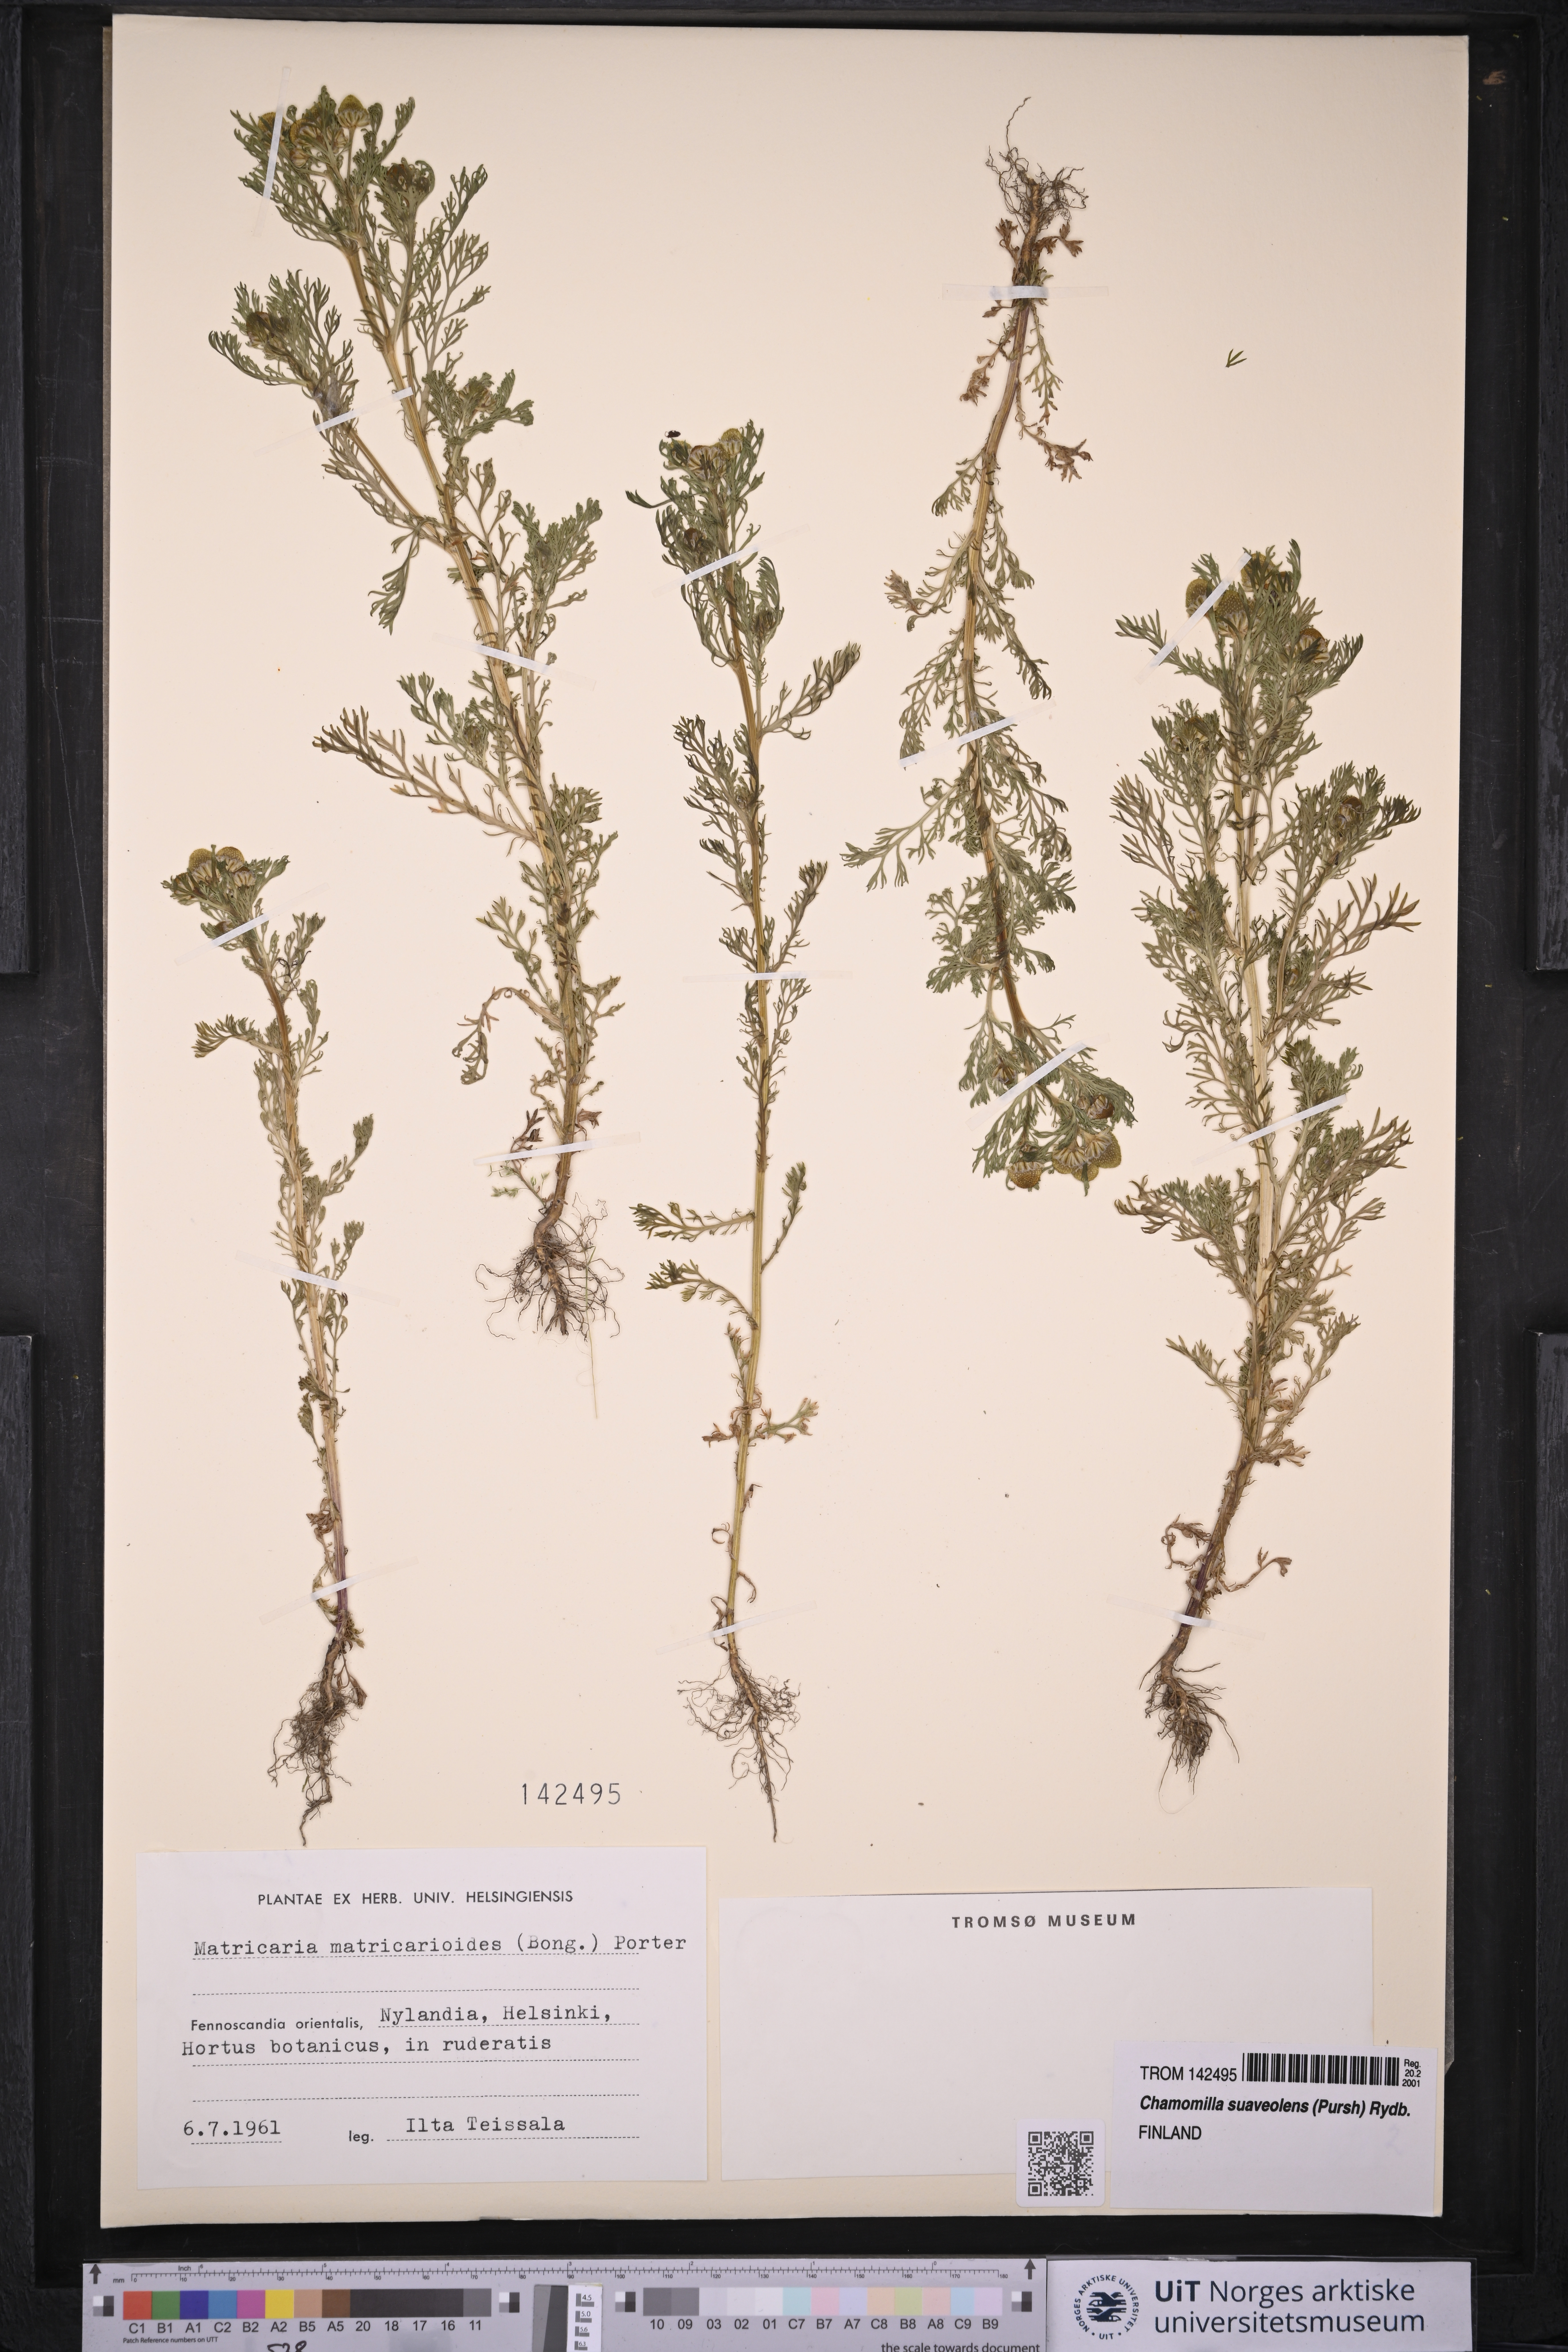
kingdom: Plantae
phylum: Tracheophyta
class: Magnoliopsida
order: Asterales
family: Asteraceae
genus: Matricaria
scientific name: Matricaria discoidea
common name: Disc mayweed
